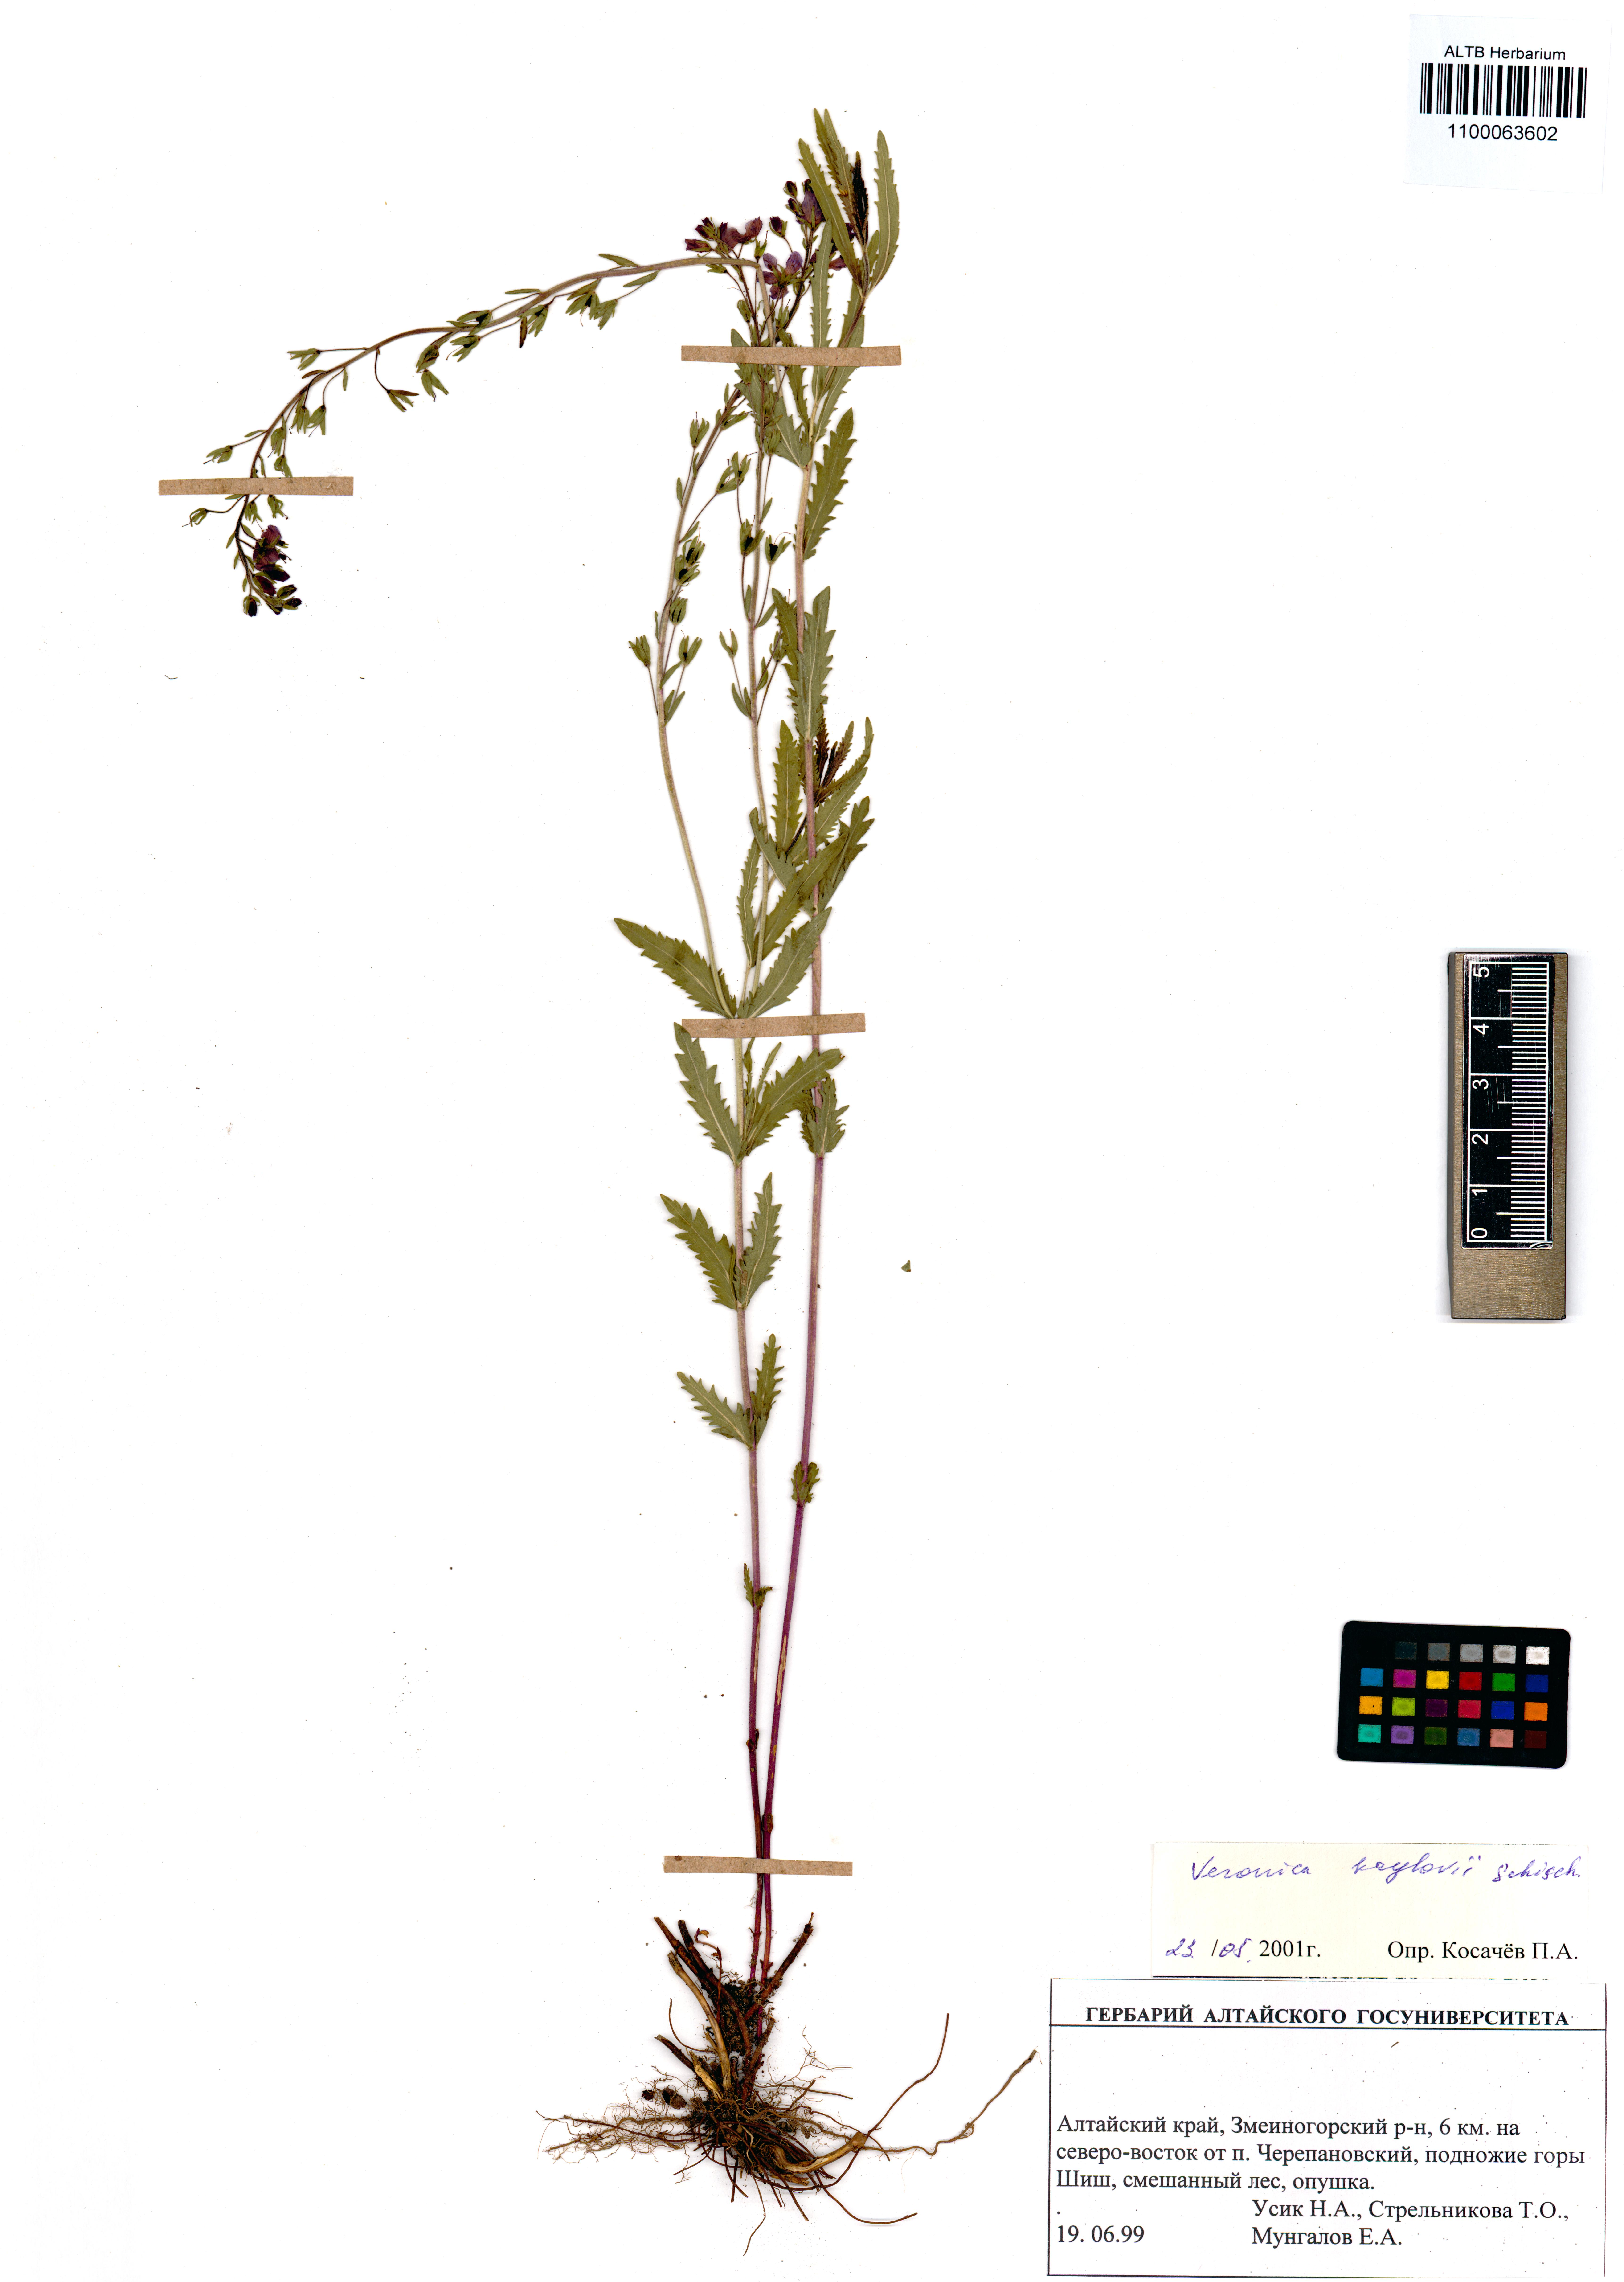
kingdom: Plantae
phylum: Tracheophyta
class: Magnoliopsida
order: Lamiales
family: Plantaginaceae
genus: Veronica
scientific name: Veronica krylovii
